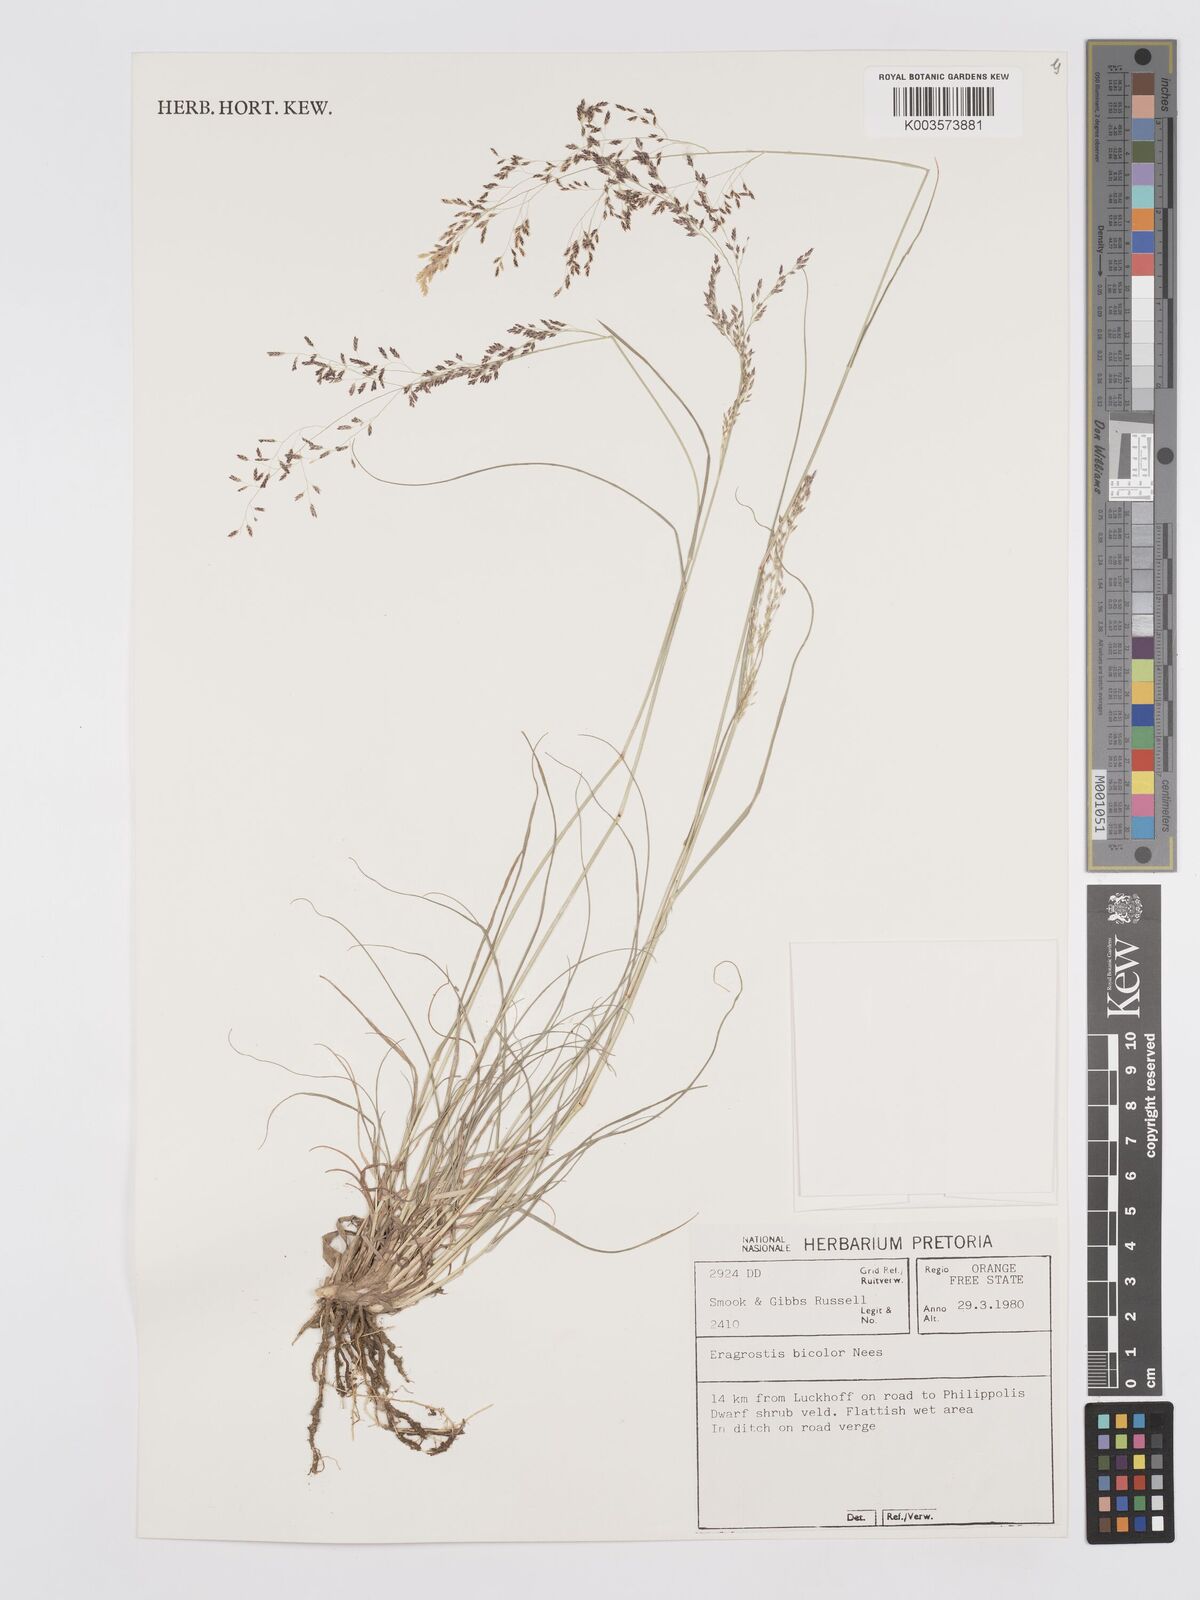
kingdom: Plantae
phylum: Tracheophyta
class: Liliopsida
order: Poales
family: Poaceae
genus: Eragrostis
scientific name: Eragrostis
